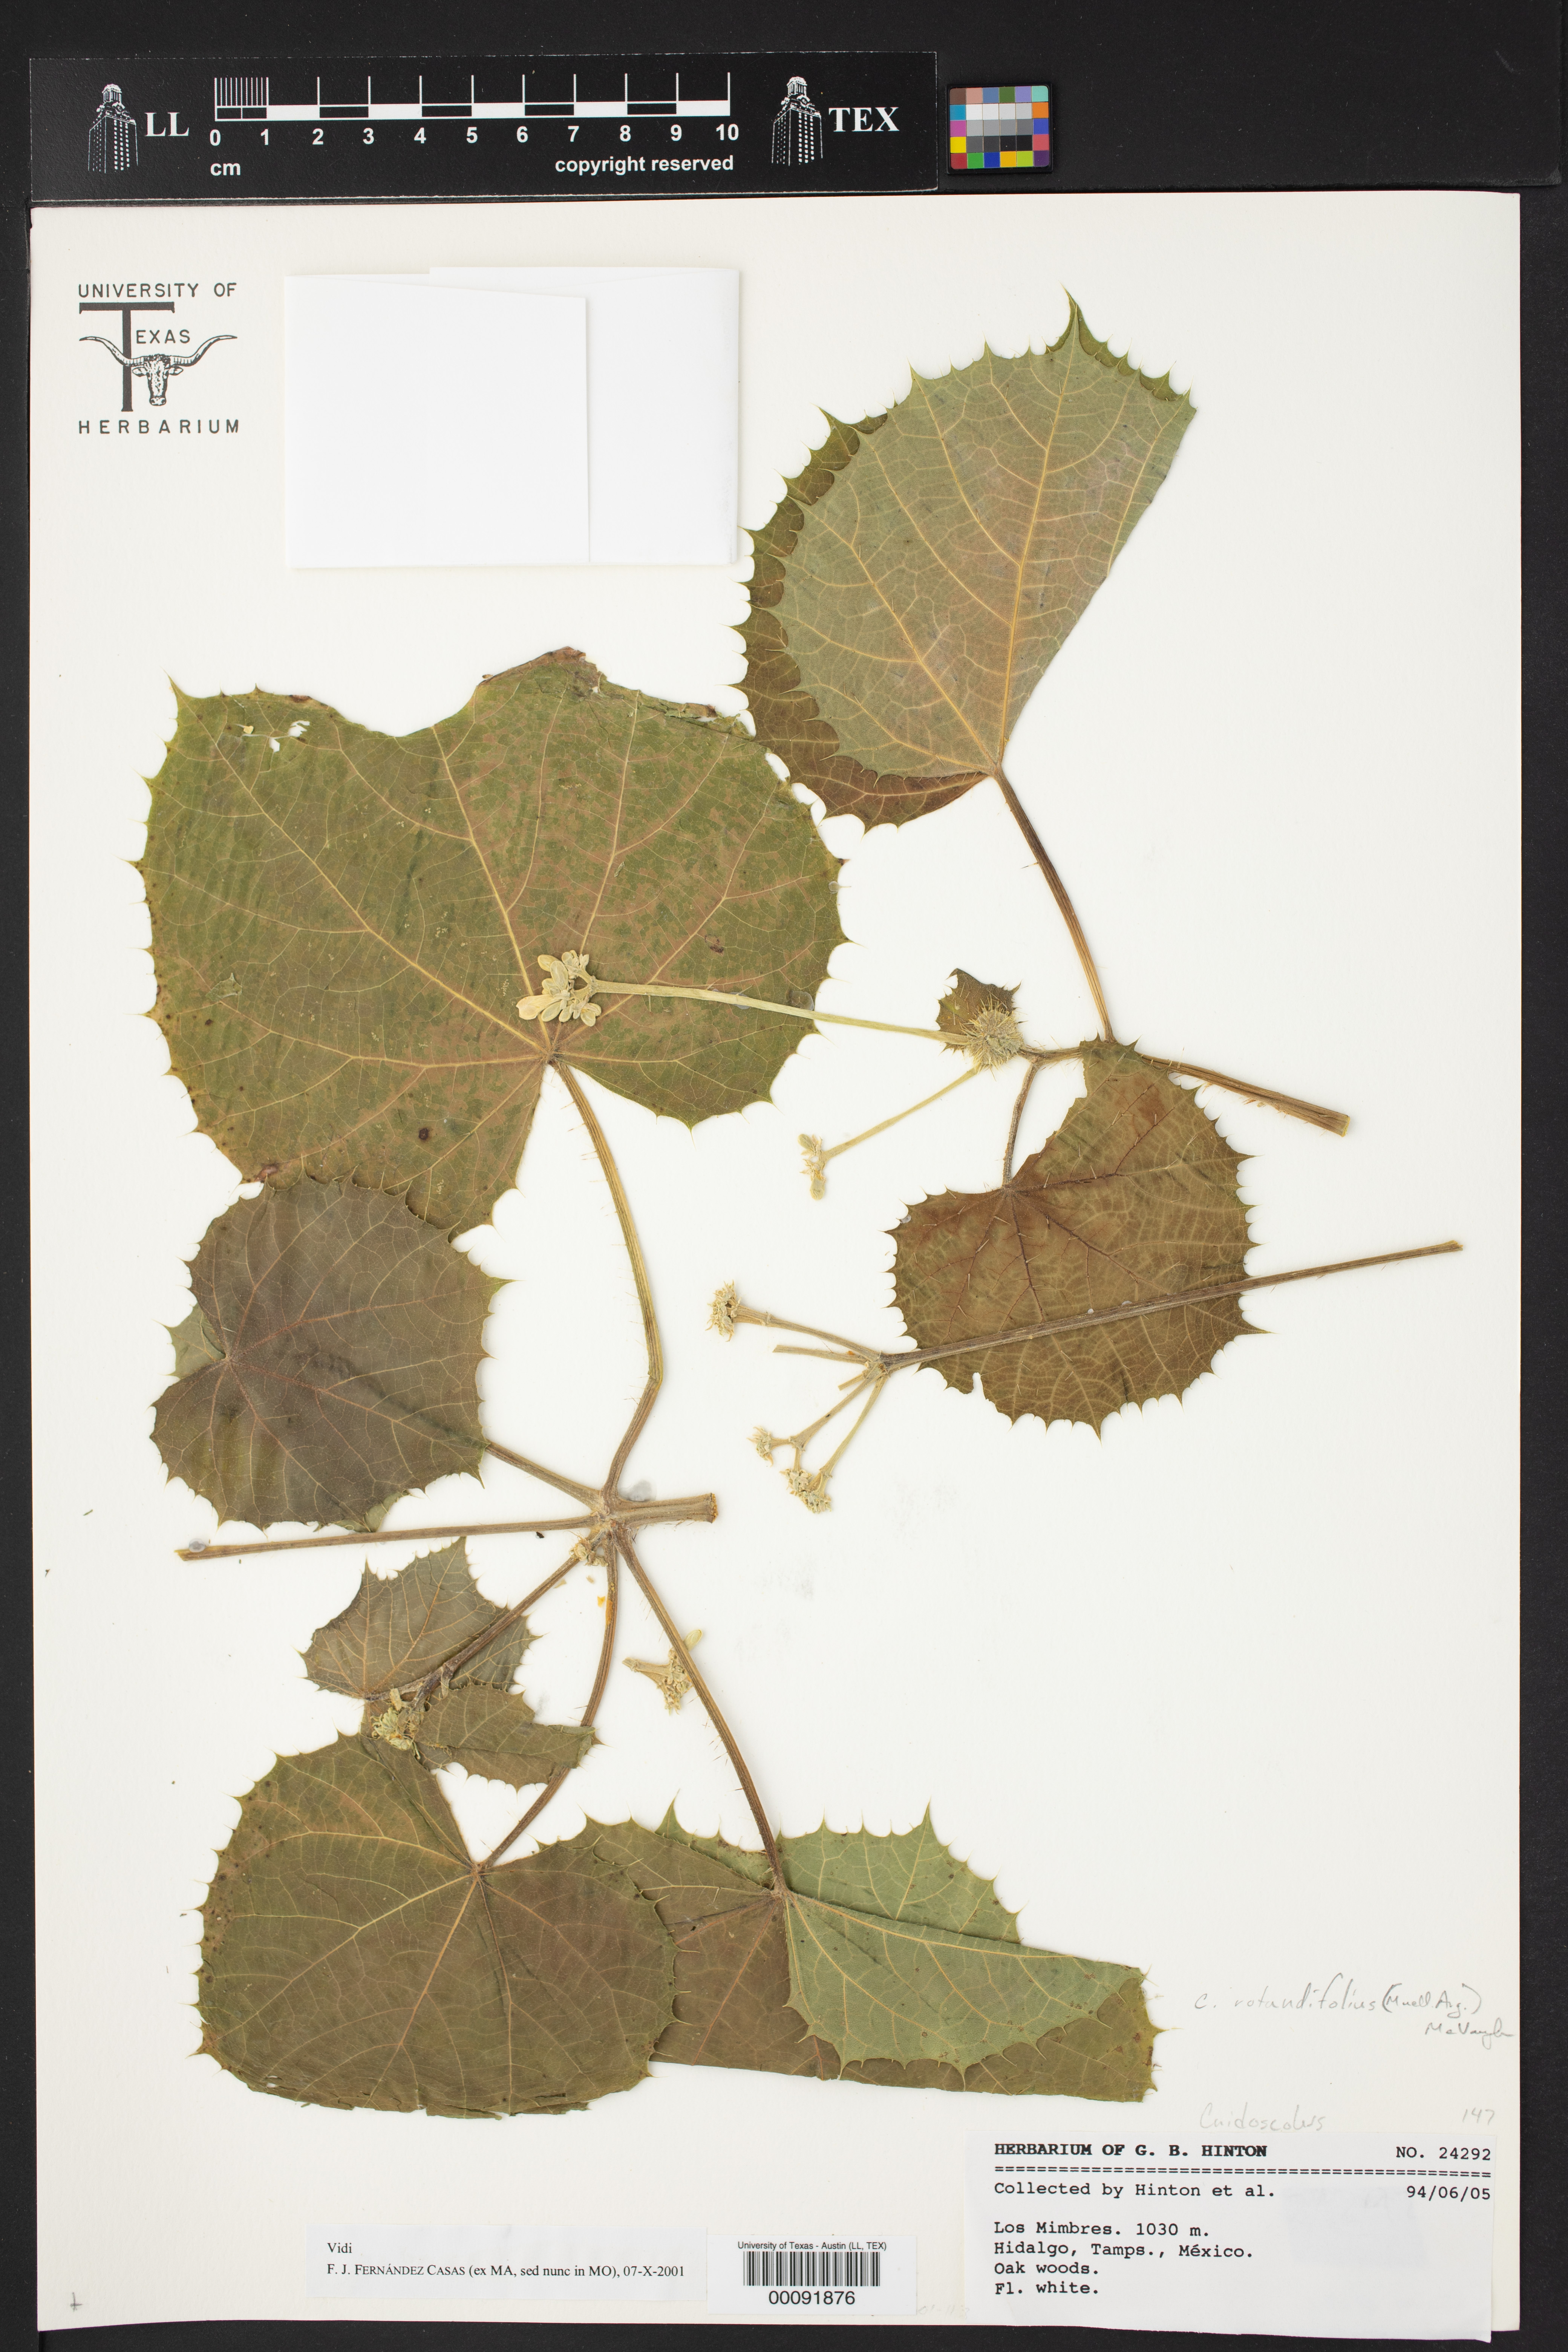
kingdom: Plantae
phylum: Tracheophyta
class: Magnoliopsida
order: Malpighiales
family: Euphorbiaceae
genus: Cnidoscolus
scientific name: Cnidoscolus rotundifolius
